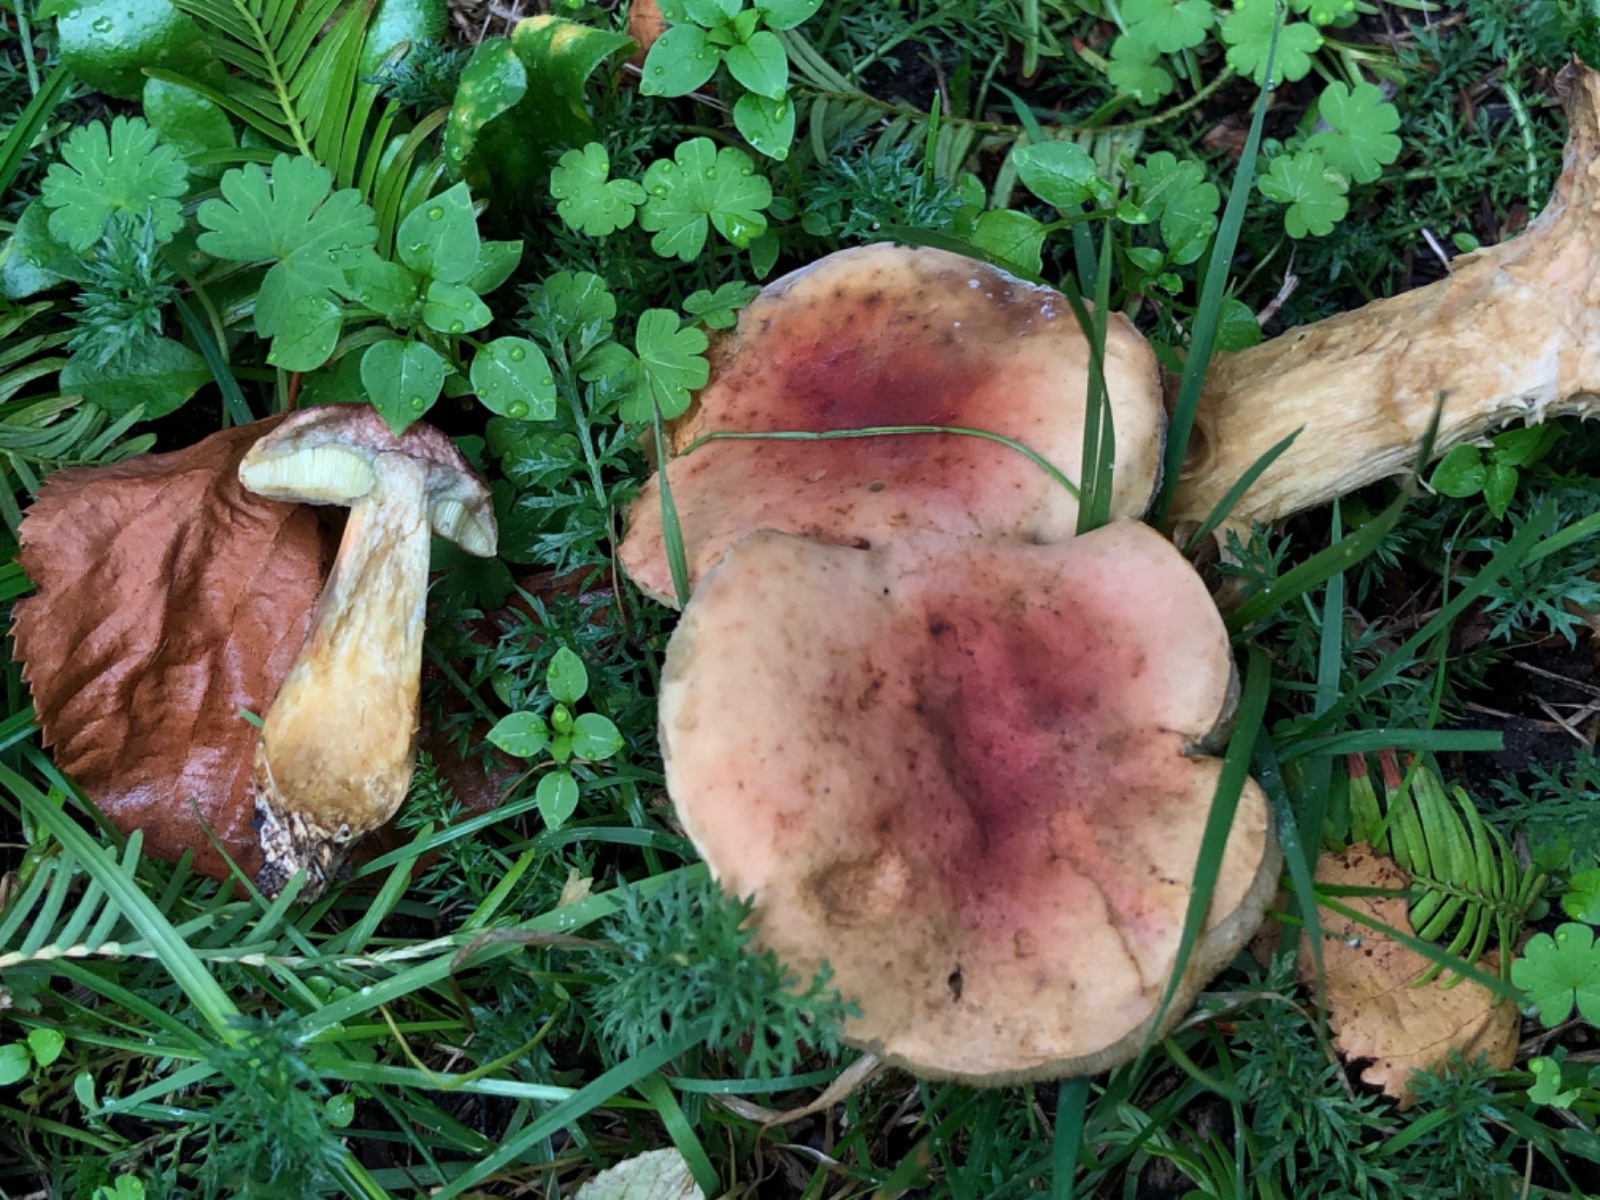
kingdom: Fungi
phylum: Basidiomycota
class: Agaricomycetes
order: Boletales
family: Boletaceae
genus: Hortiboletus
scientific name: Hortiboletus bubalinus
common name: aurora-rørhat
